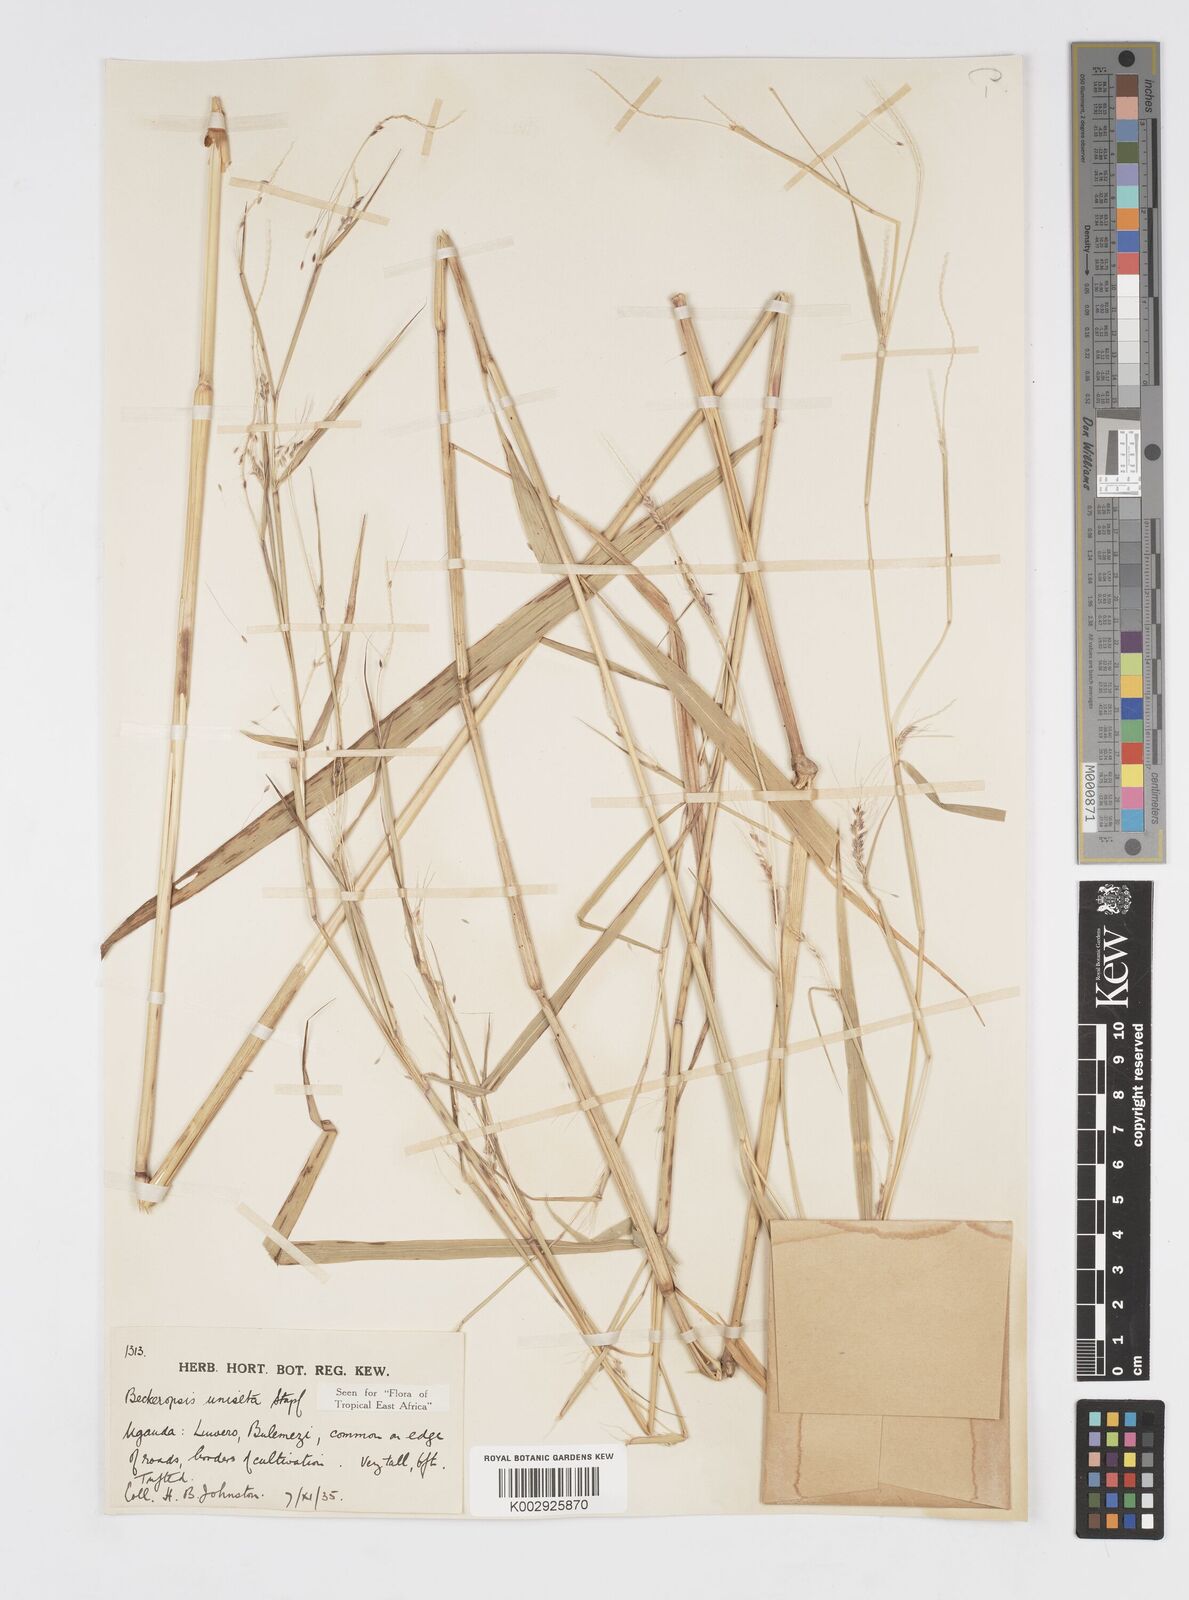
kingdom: Plantae
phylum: Tracheophyta
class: Liliopsida
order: Poales
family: Poaceae
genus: Cenchrus
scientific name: Cenchrus unisetus
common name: Natal grass
